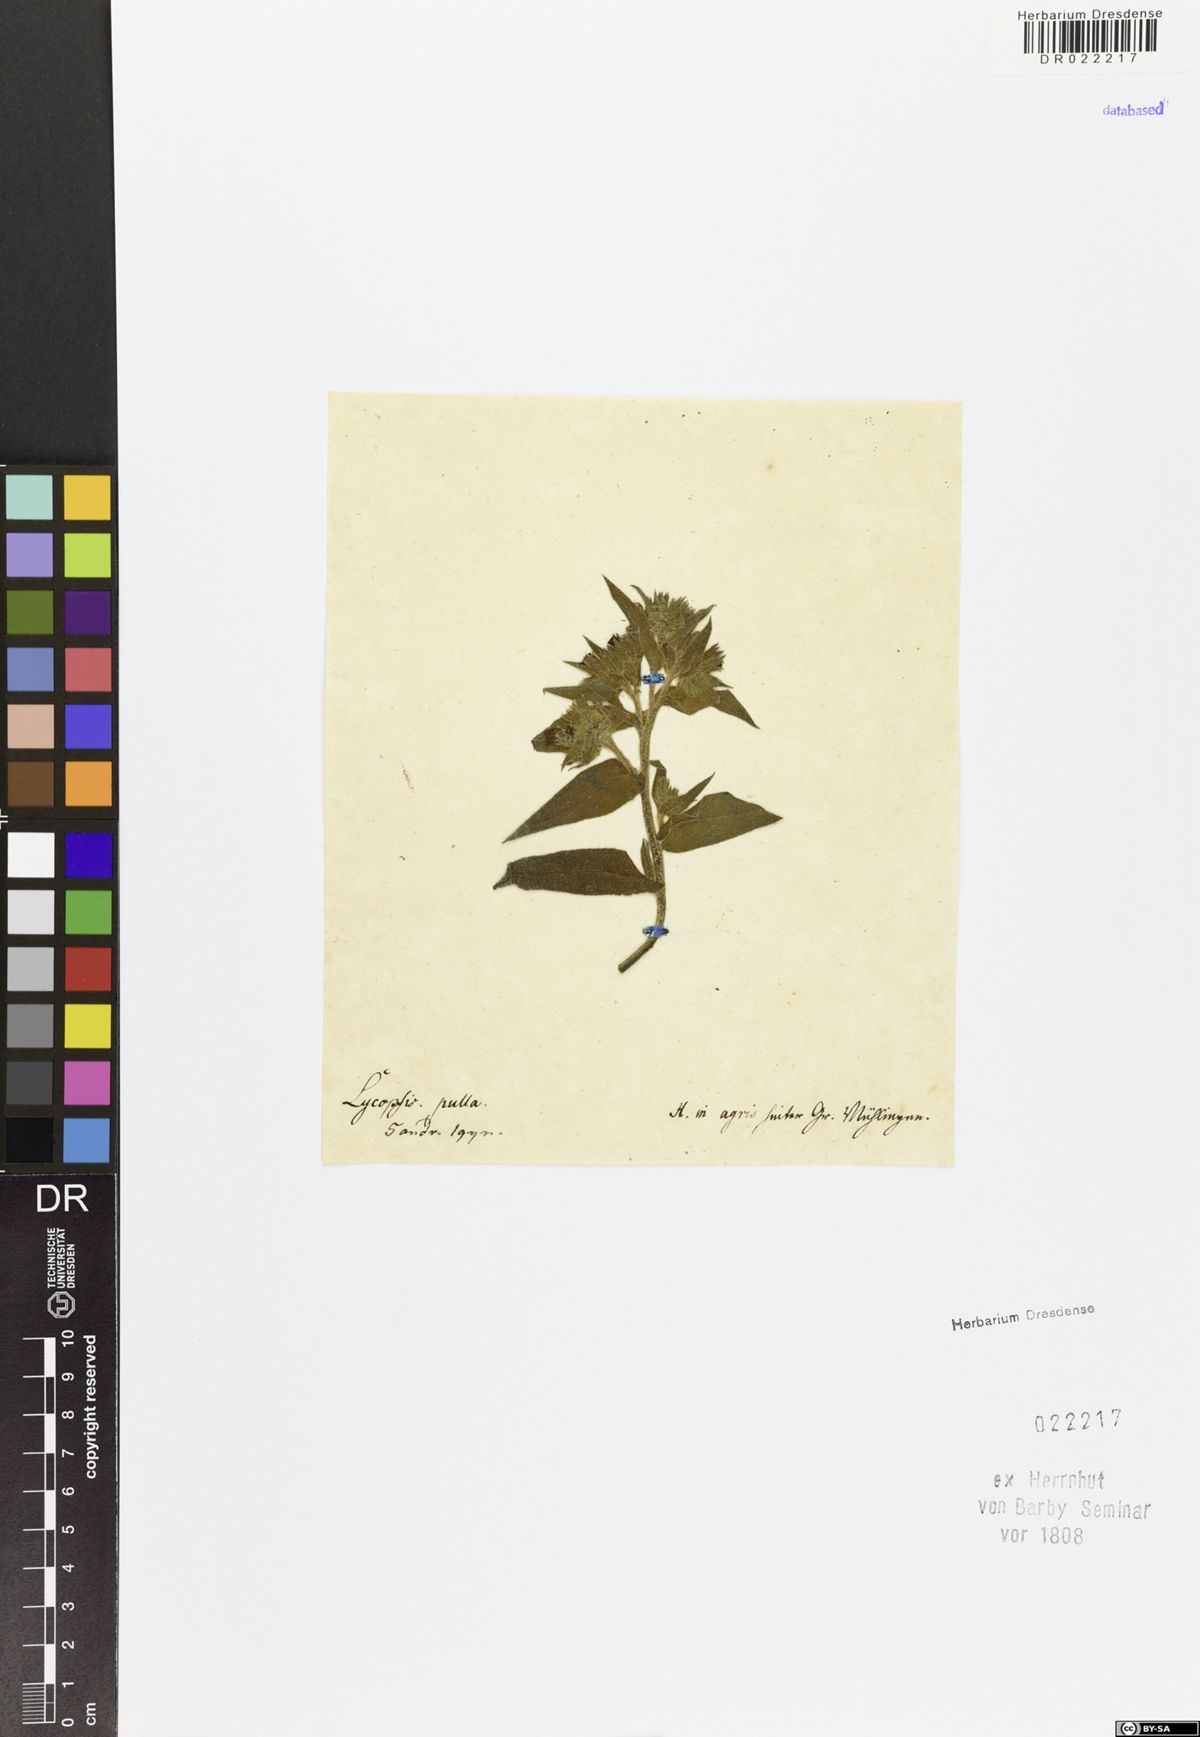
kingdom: Plantae
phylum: Tracheophyta
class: Magnoliopsida
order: Boraginales
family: Boraginaceae
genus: Nonea
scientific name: Nonea pulla
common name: Brown nonea
